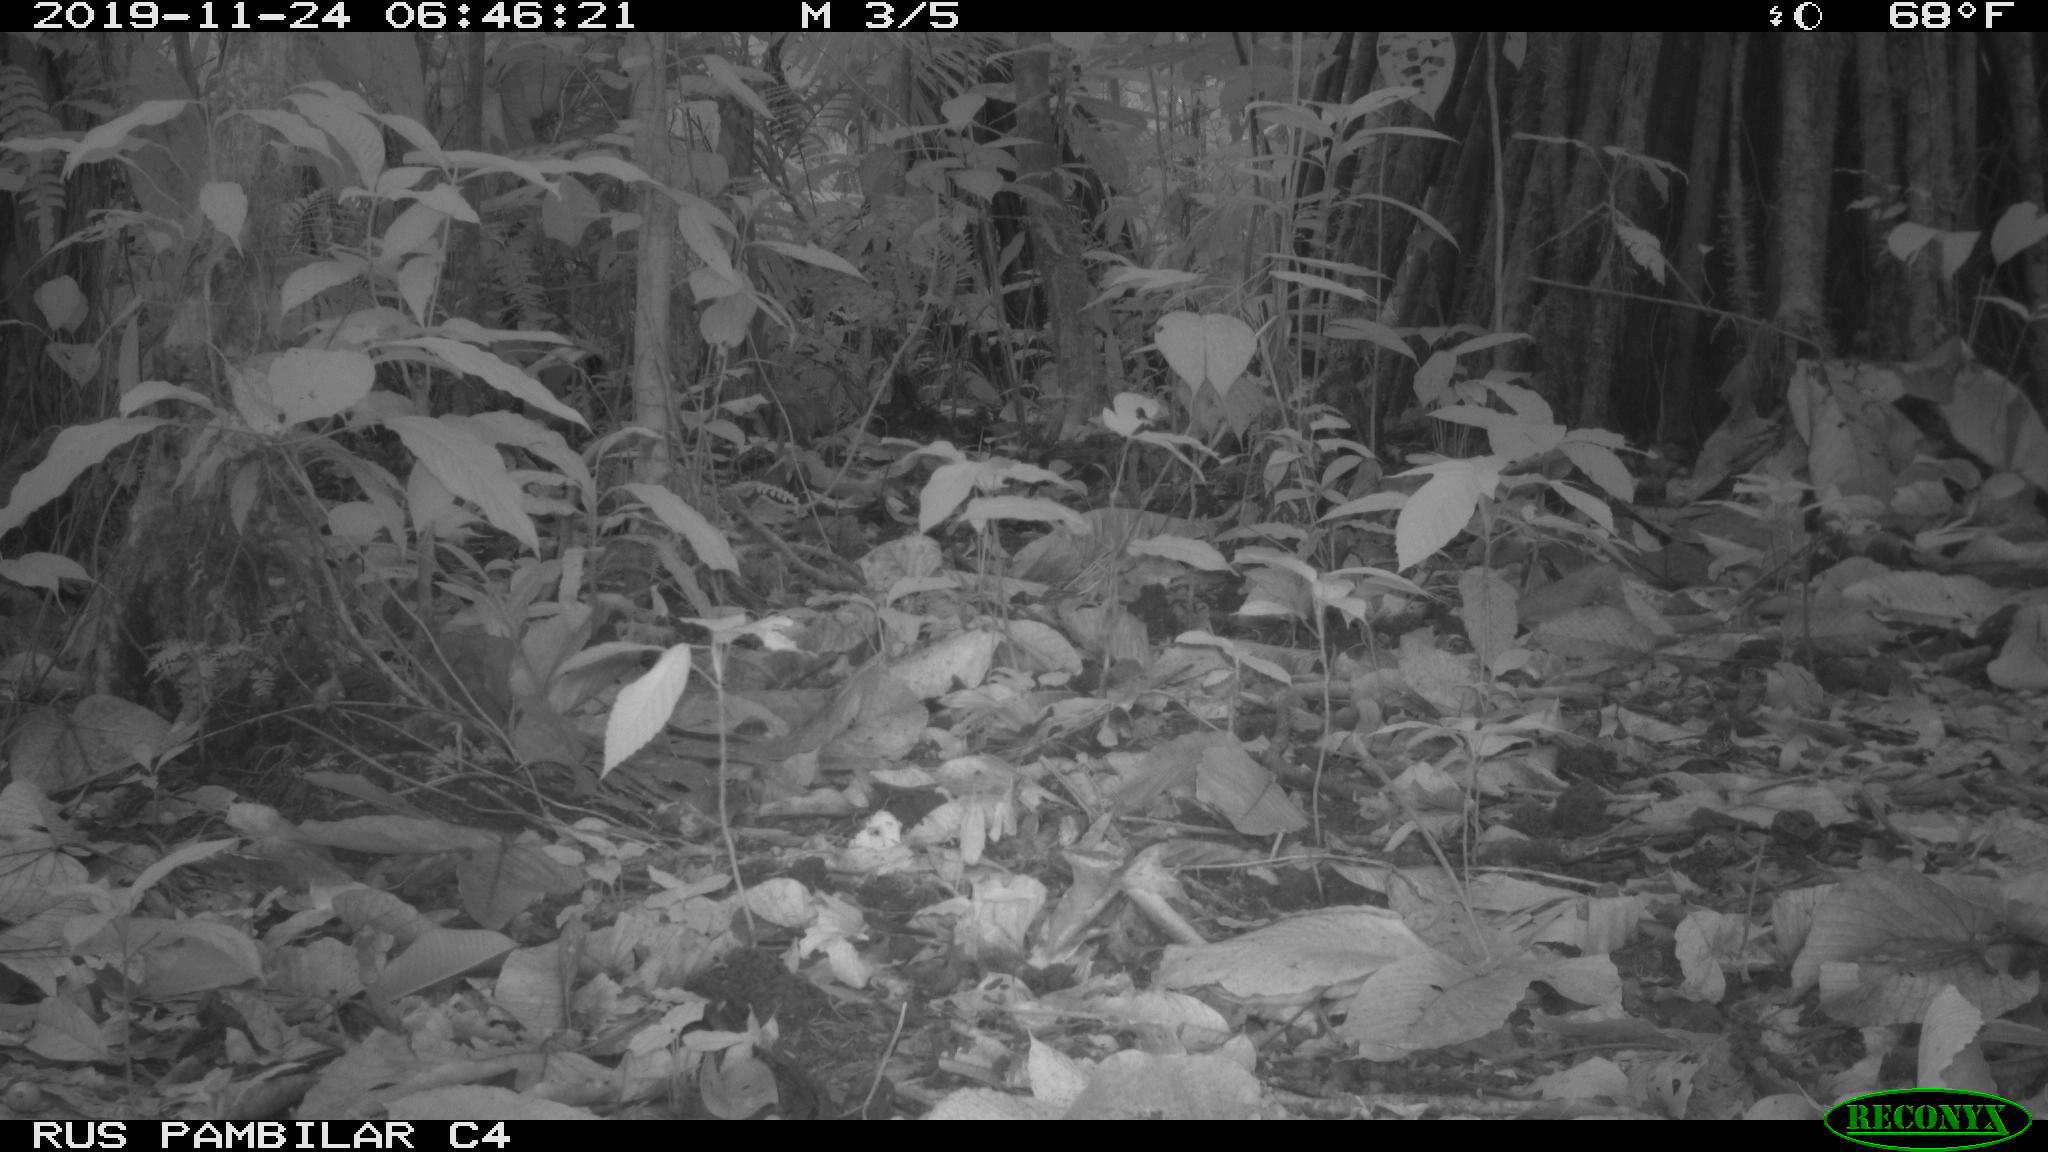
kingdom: Animalia
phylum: Chordata
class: Mammalia
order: Rodentia
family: Dasyproctidae
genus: Dasyprocta
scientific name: Dasyprocta punctata
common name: Central american agouti
